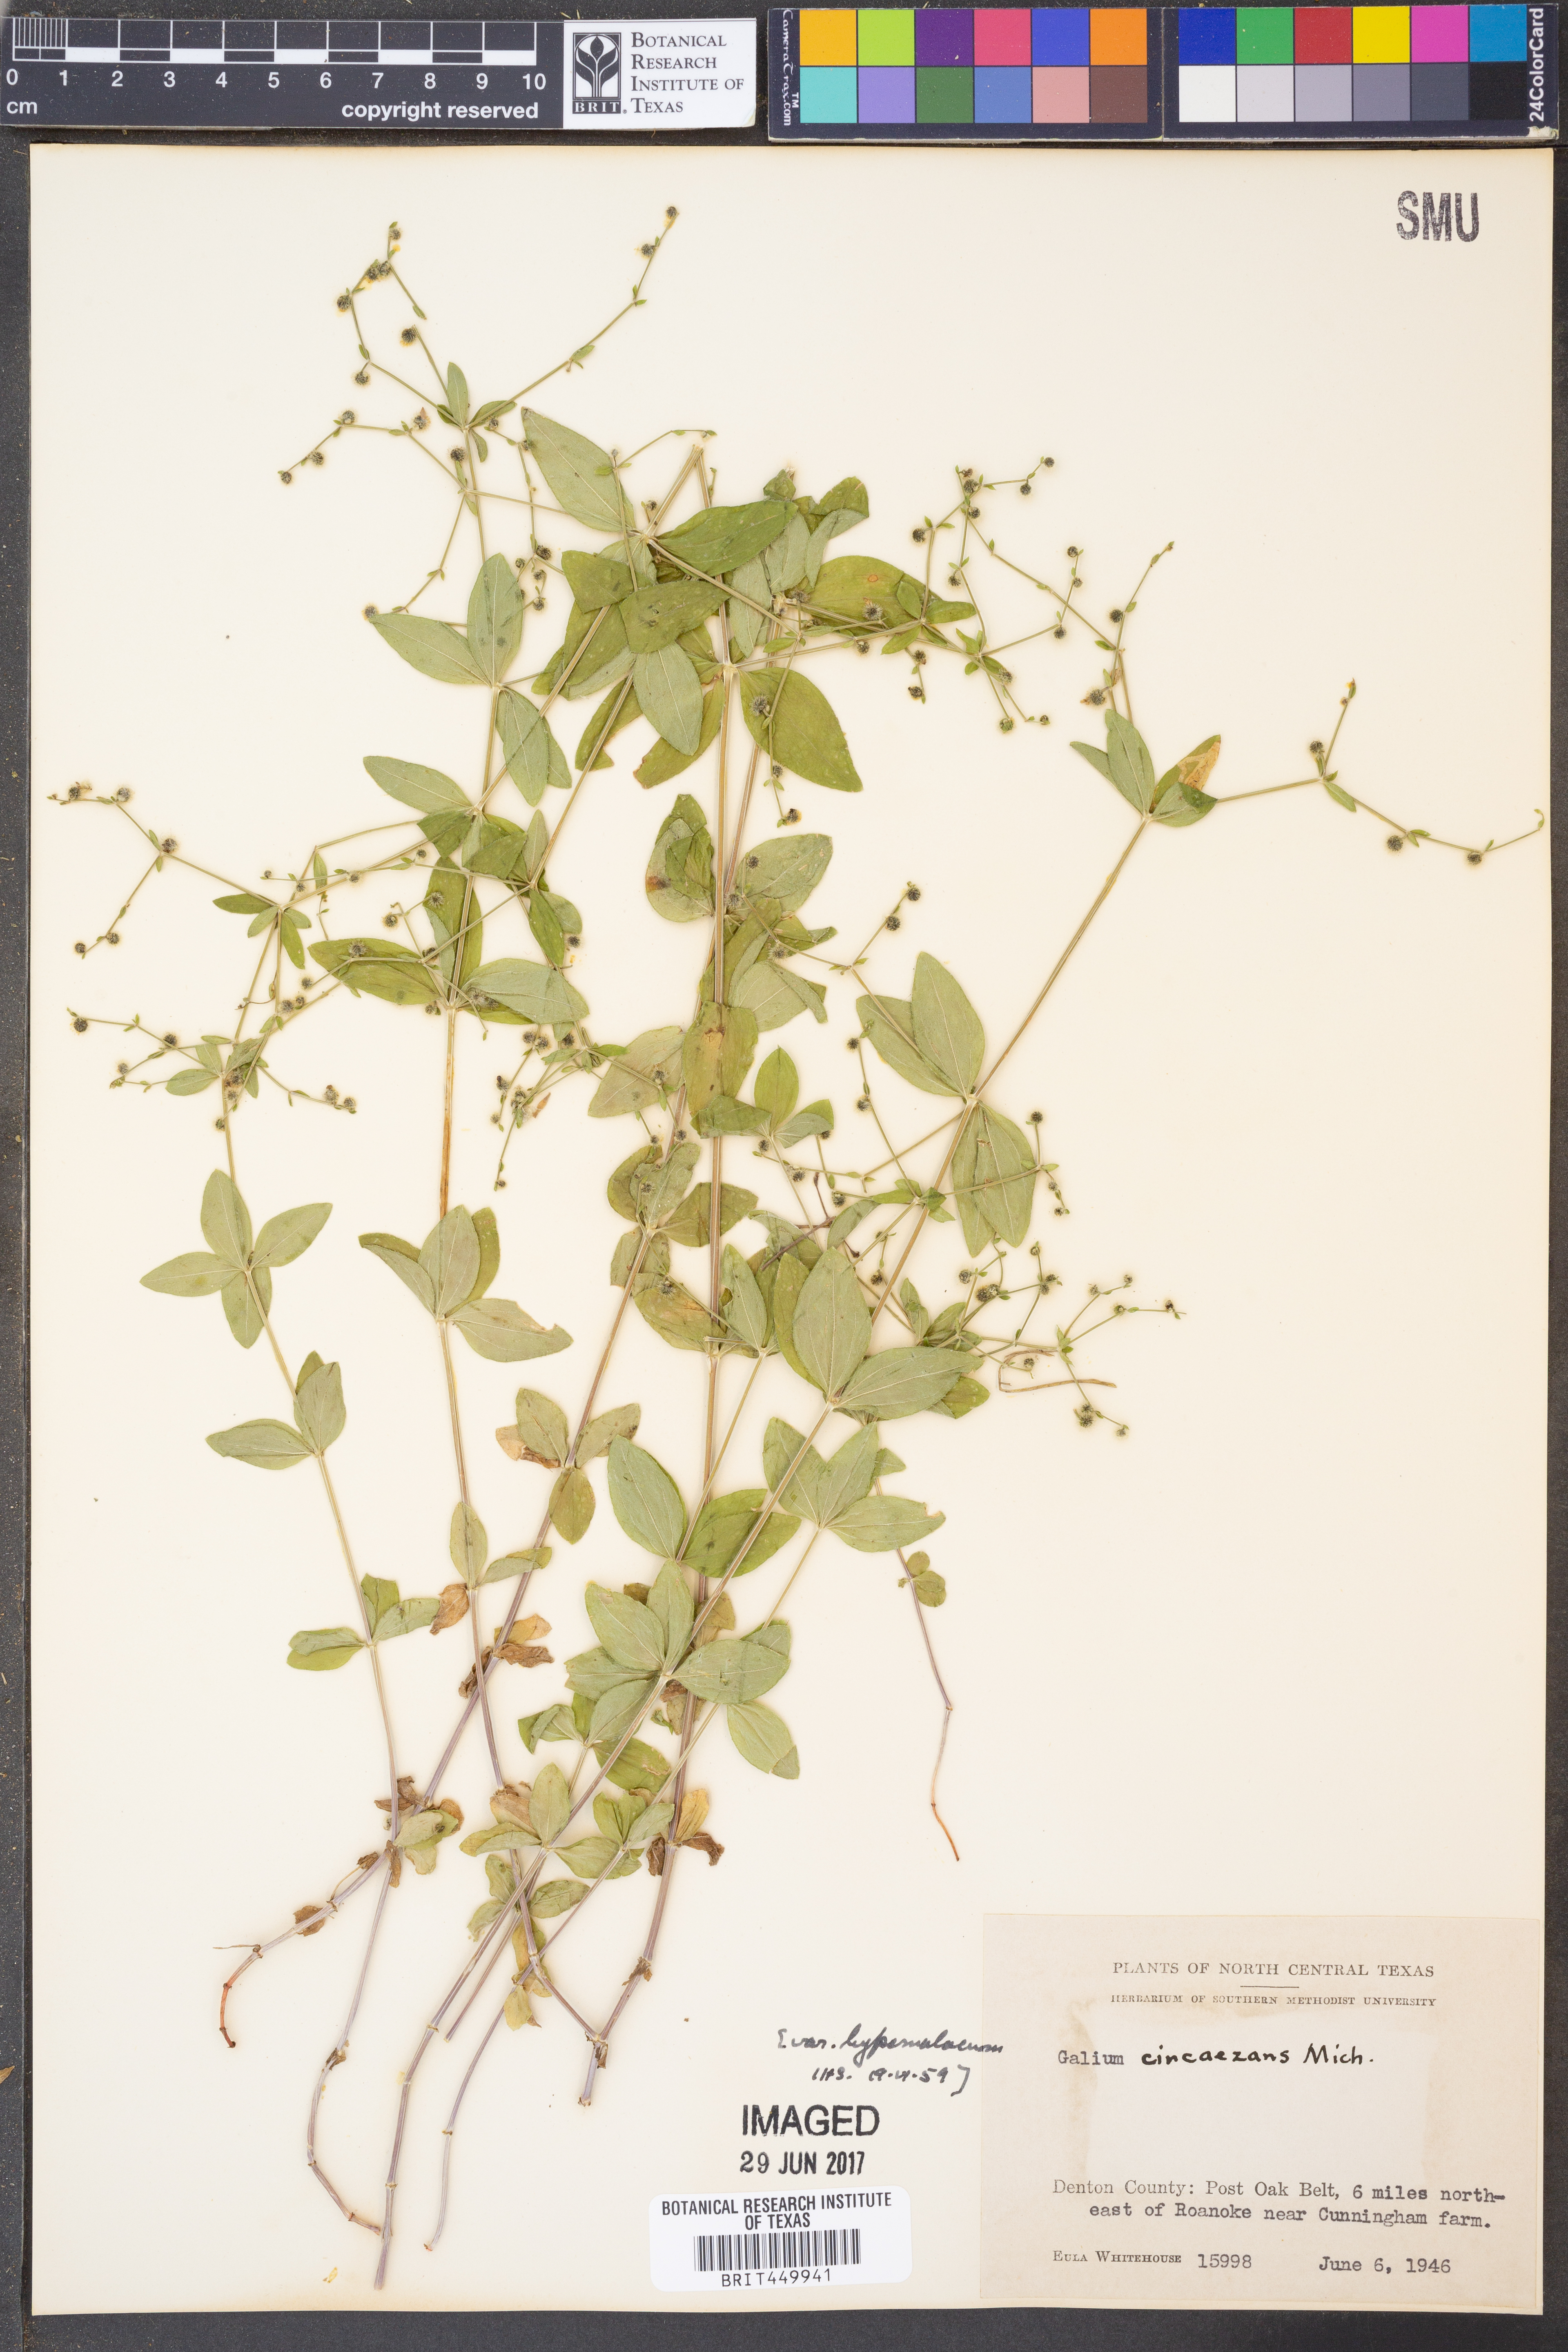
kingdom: Plantae
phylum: Tracheophyta
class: Magnoliopsida
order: Gentianales
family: Rubiaceae
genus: Galium
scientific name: Galium circaezans
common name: Forest bedstraw
